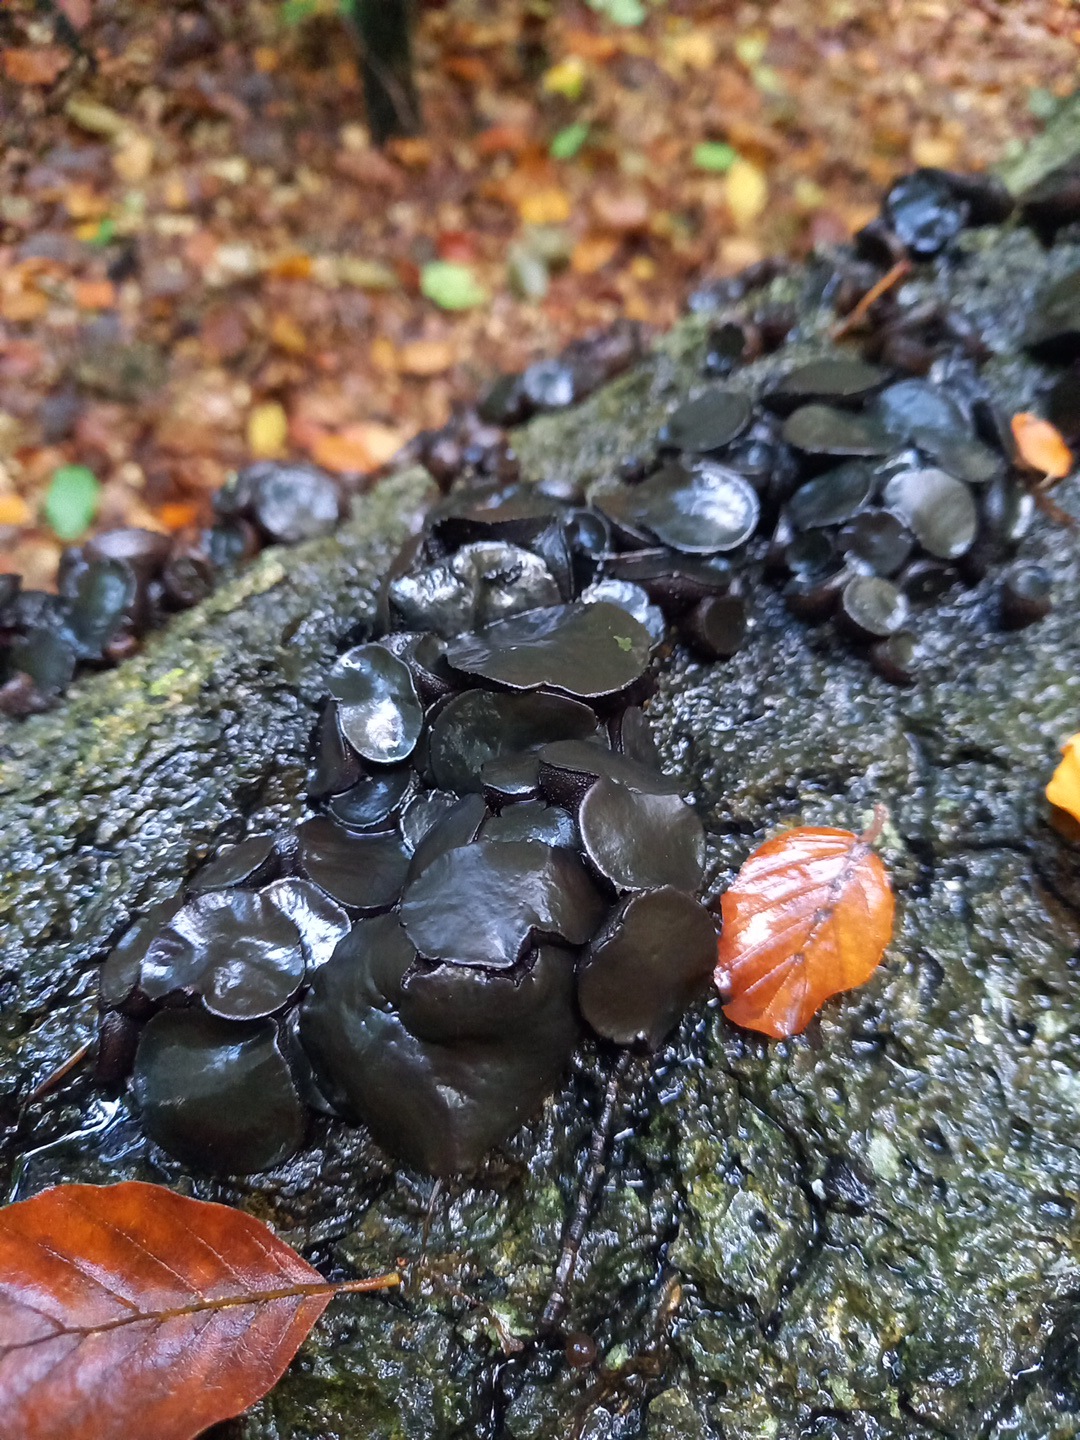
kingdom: Fungi
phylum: Ascomycota
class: Leotiomycetes
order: Phacidiales
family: Phacidiaceae
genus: Bulgaria
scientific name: Bulgaria inquinans
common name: afsmittende topsvamp
